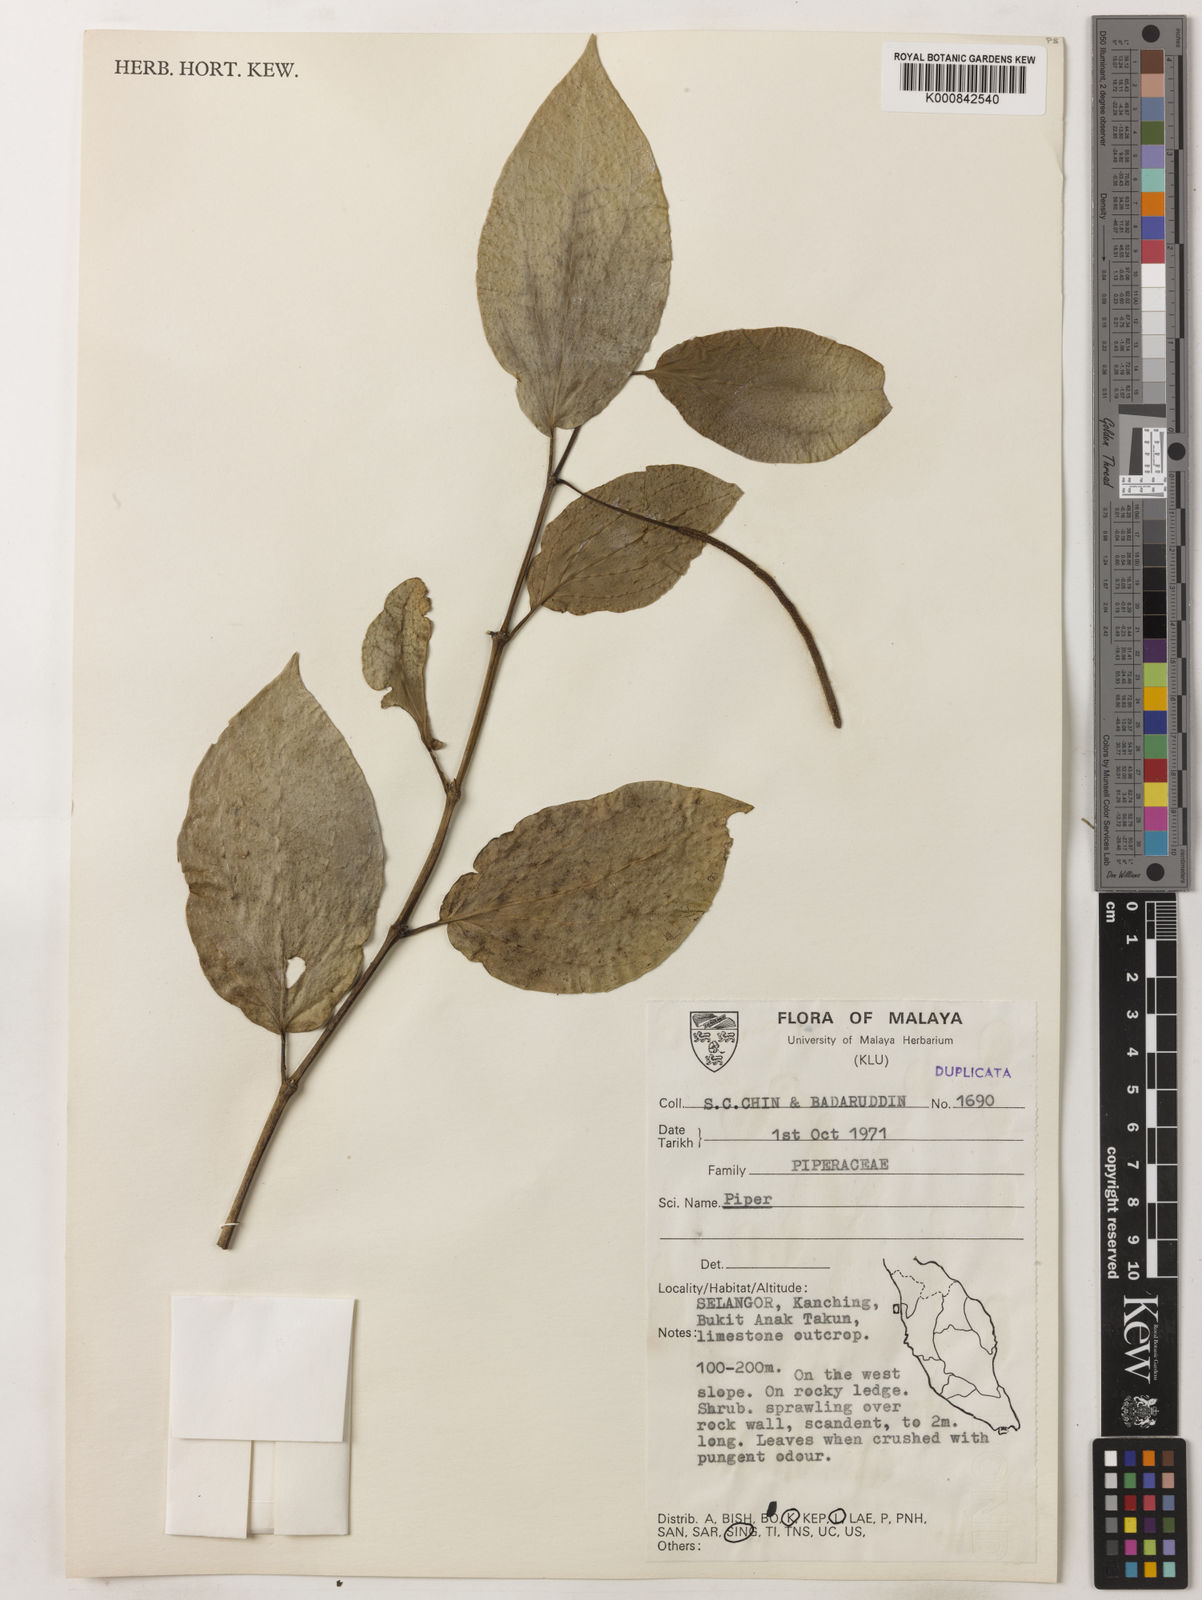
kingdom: Plantae
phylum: Tracheophyta
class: Magnoliopsida
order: Piperales
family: Piperaceae
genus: Piper
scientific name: Piper
